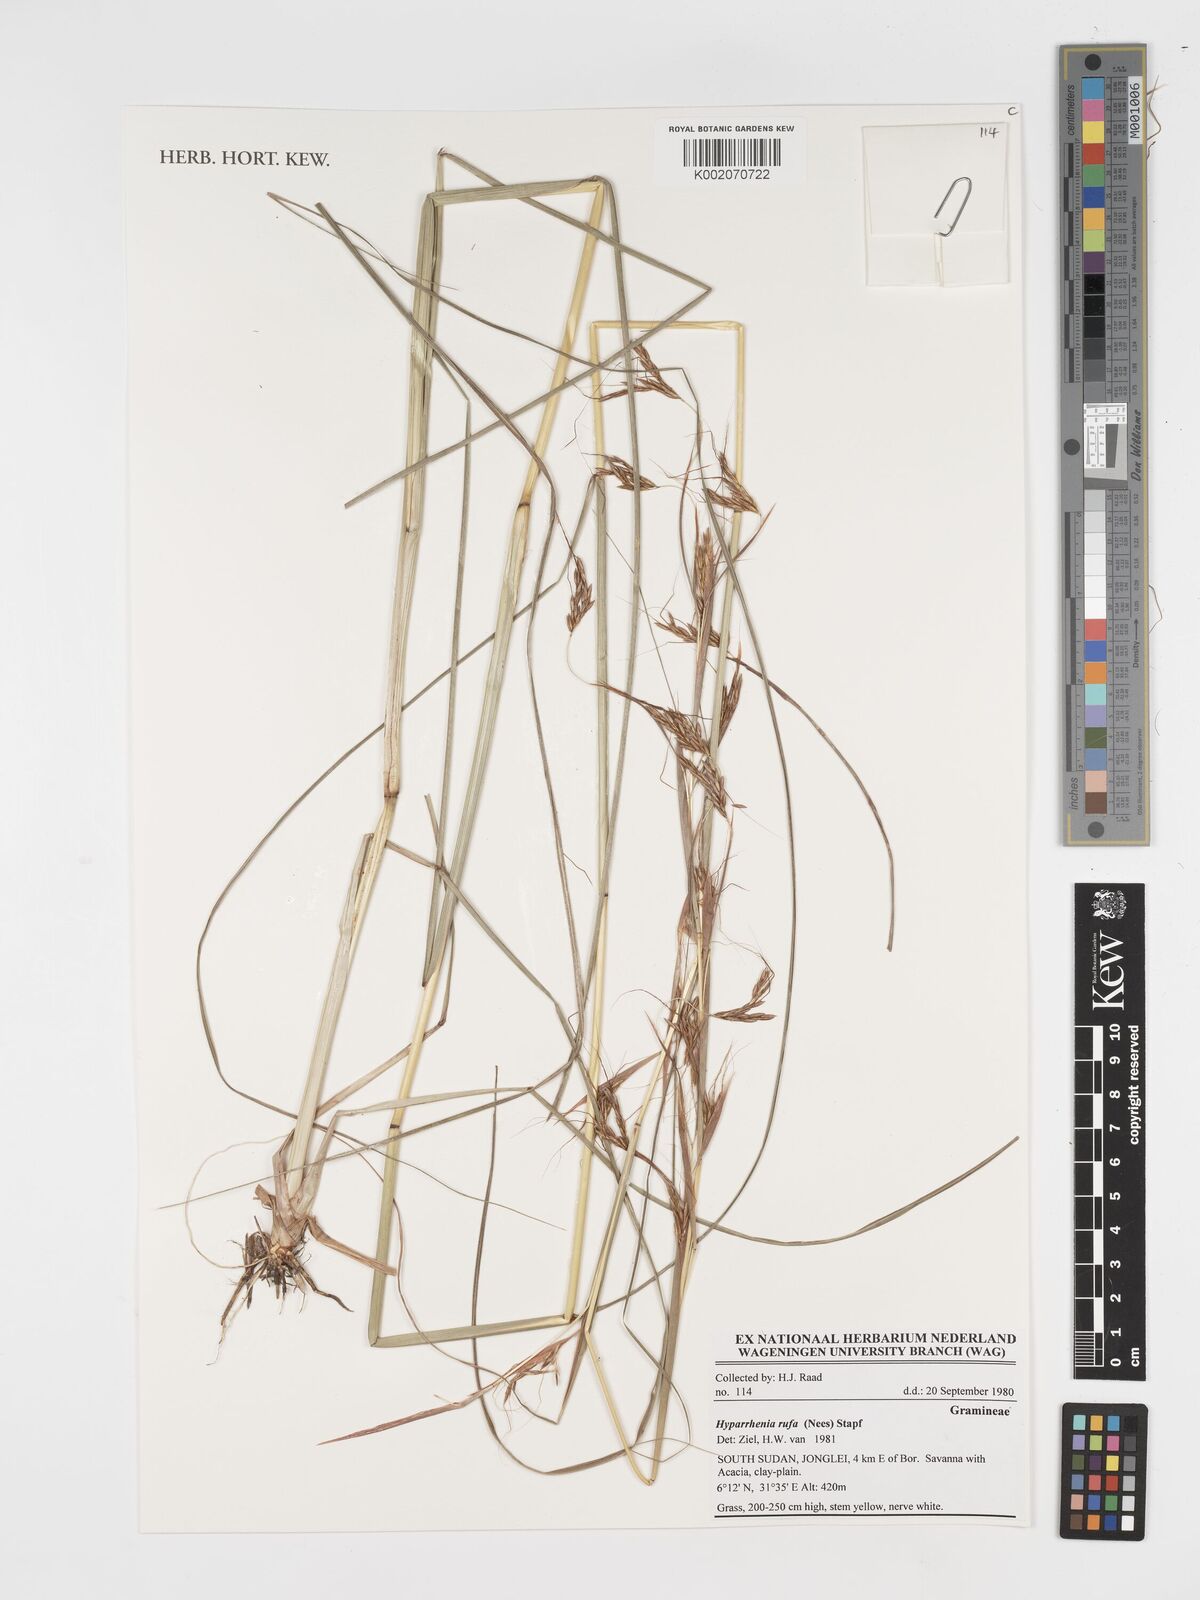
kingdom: Plantae
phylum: Tracheophyta
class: Liliopsida
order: Poales
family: Poaceae
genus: Hyparrhenia
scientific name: Hyparrhenia rufa
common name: Jaraguagrass
